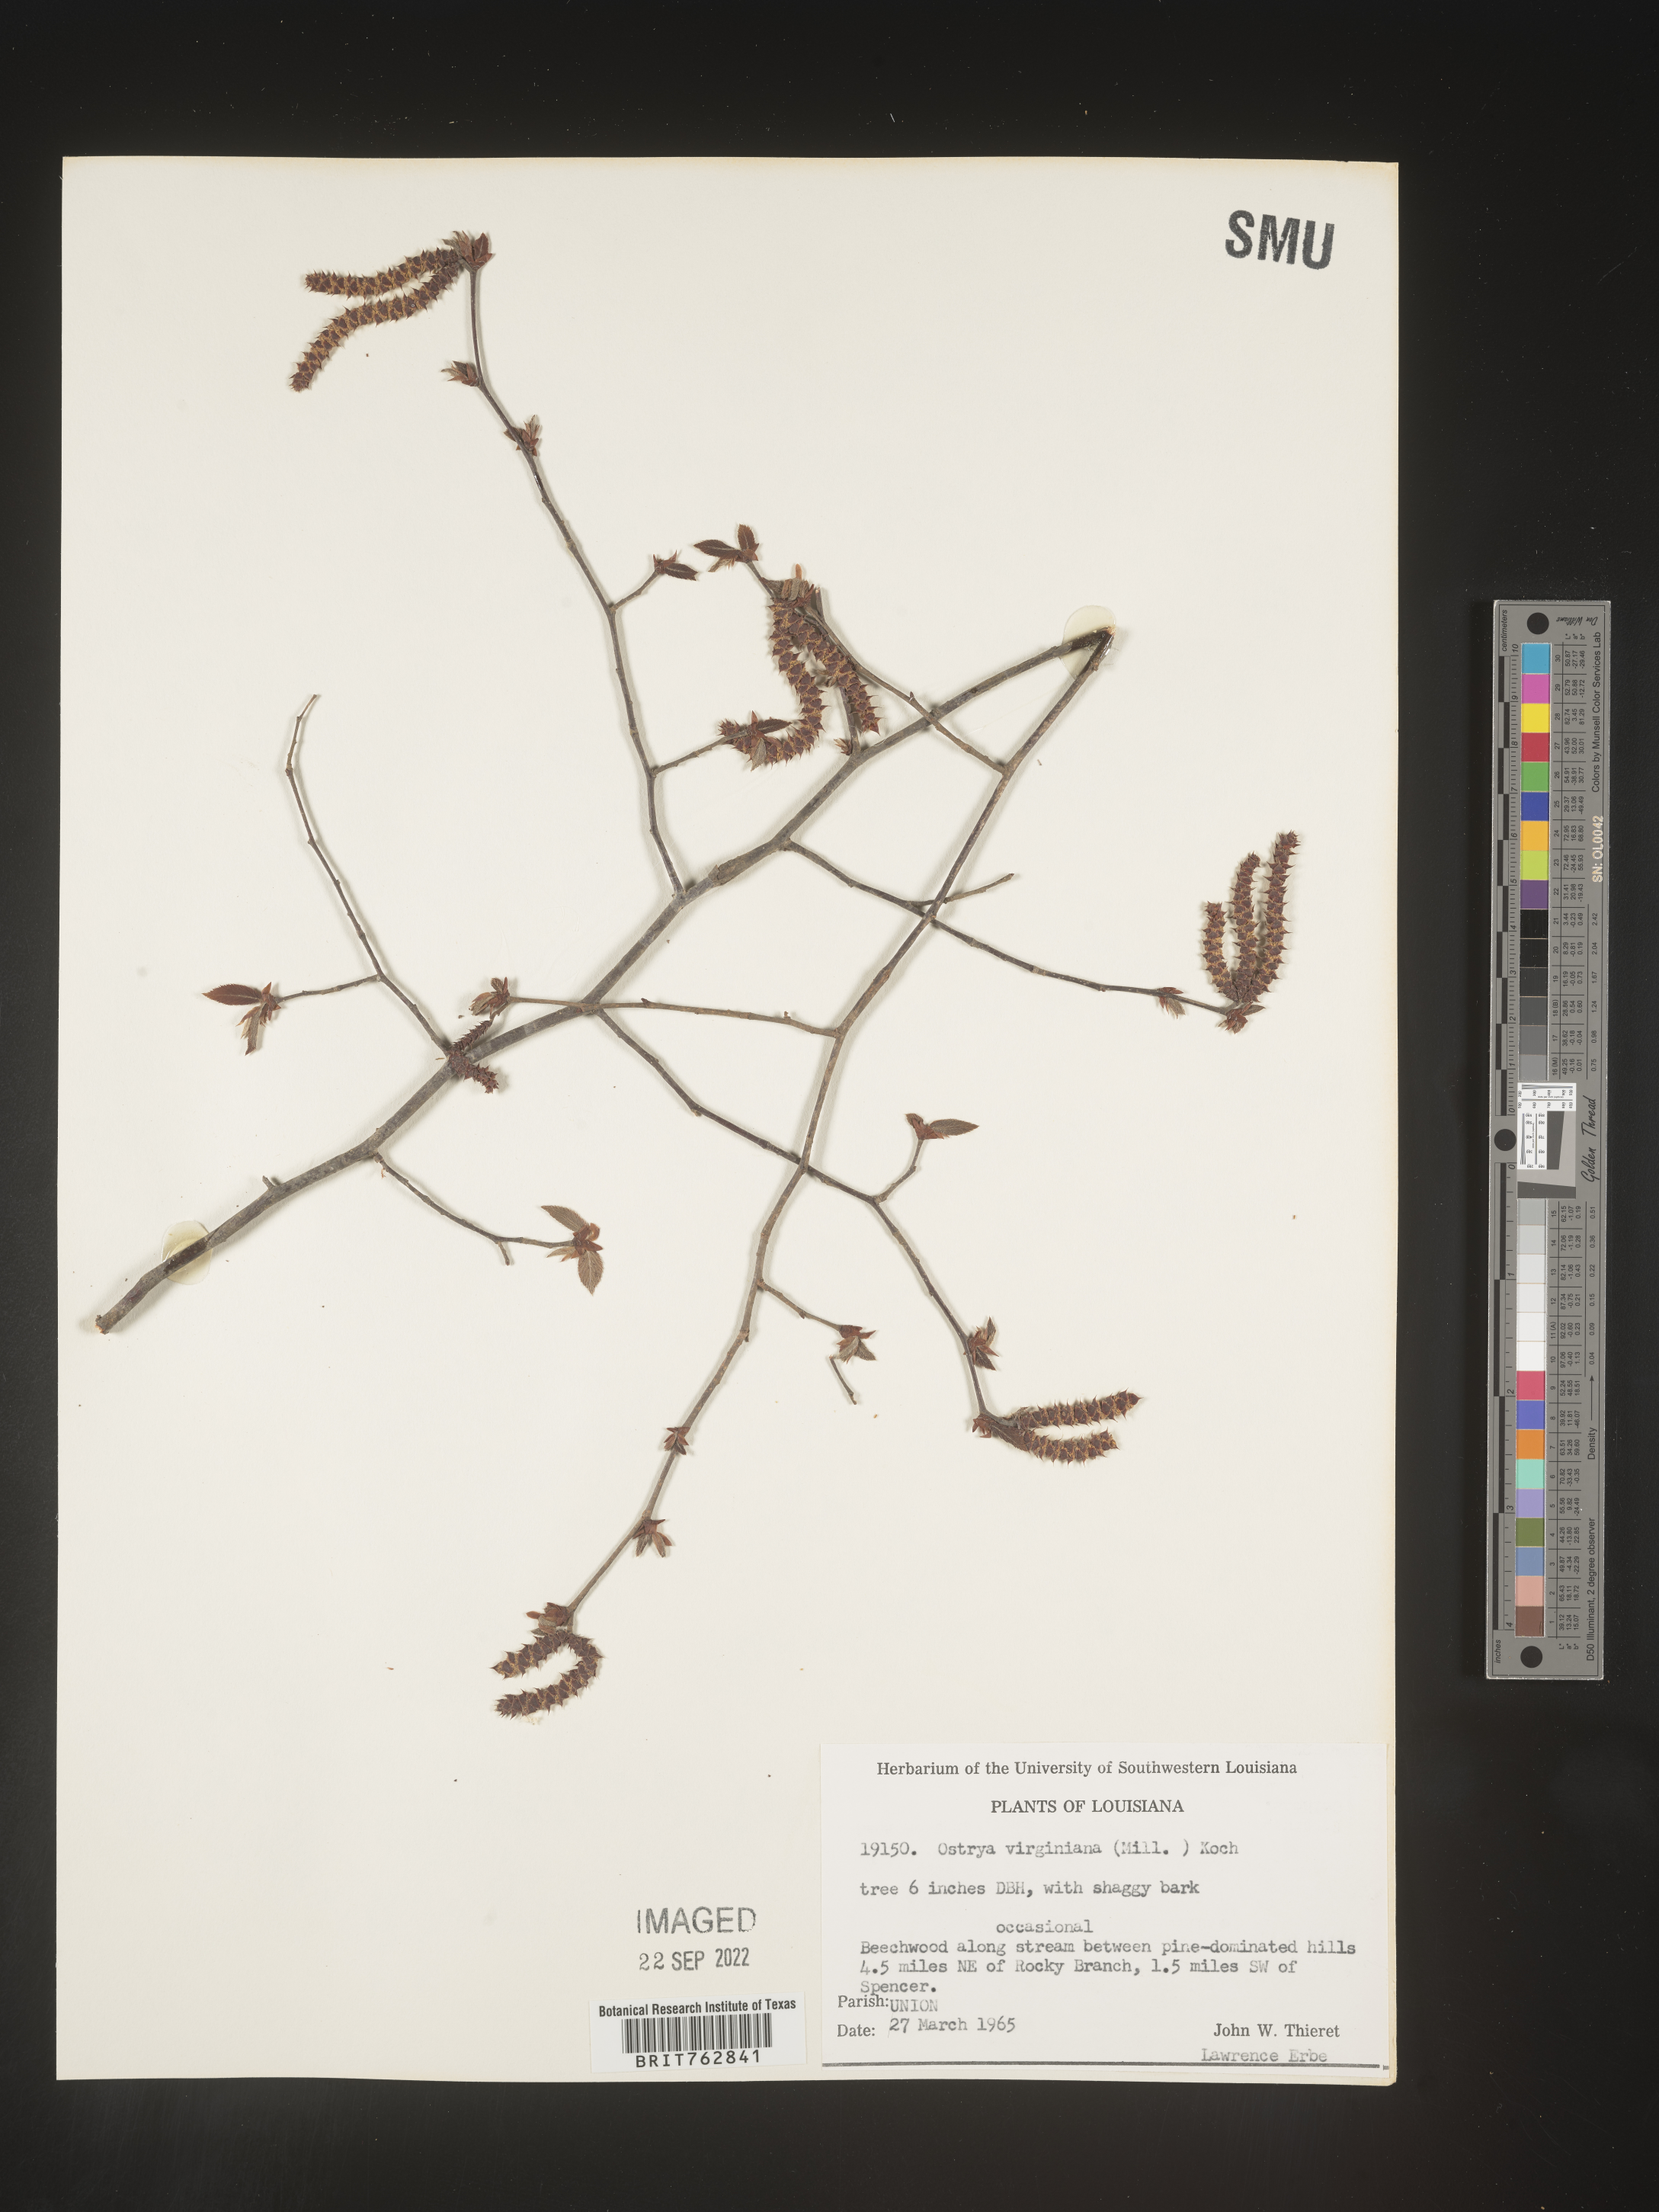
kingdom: Plantae
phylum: Tracheophyta
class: Magnoliopsida
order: Fagales
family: Betulaceae
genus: Ostrya
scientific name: Ostrya virginiana
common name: Ironwood
